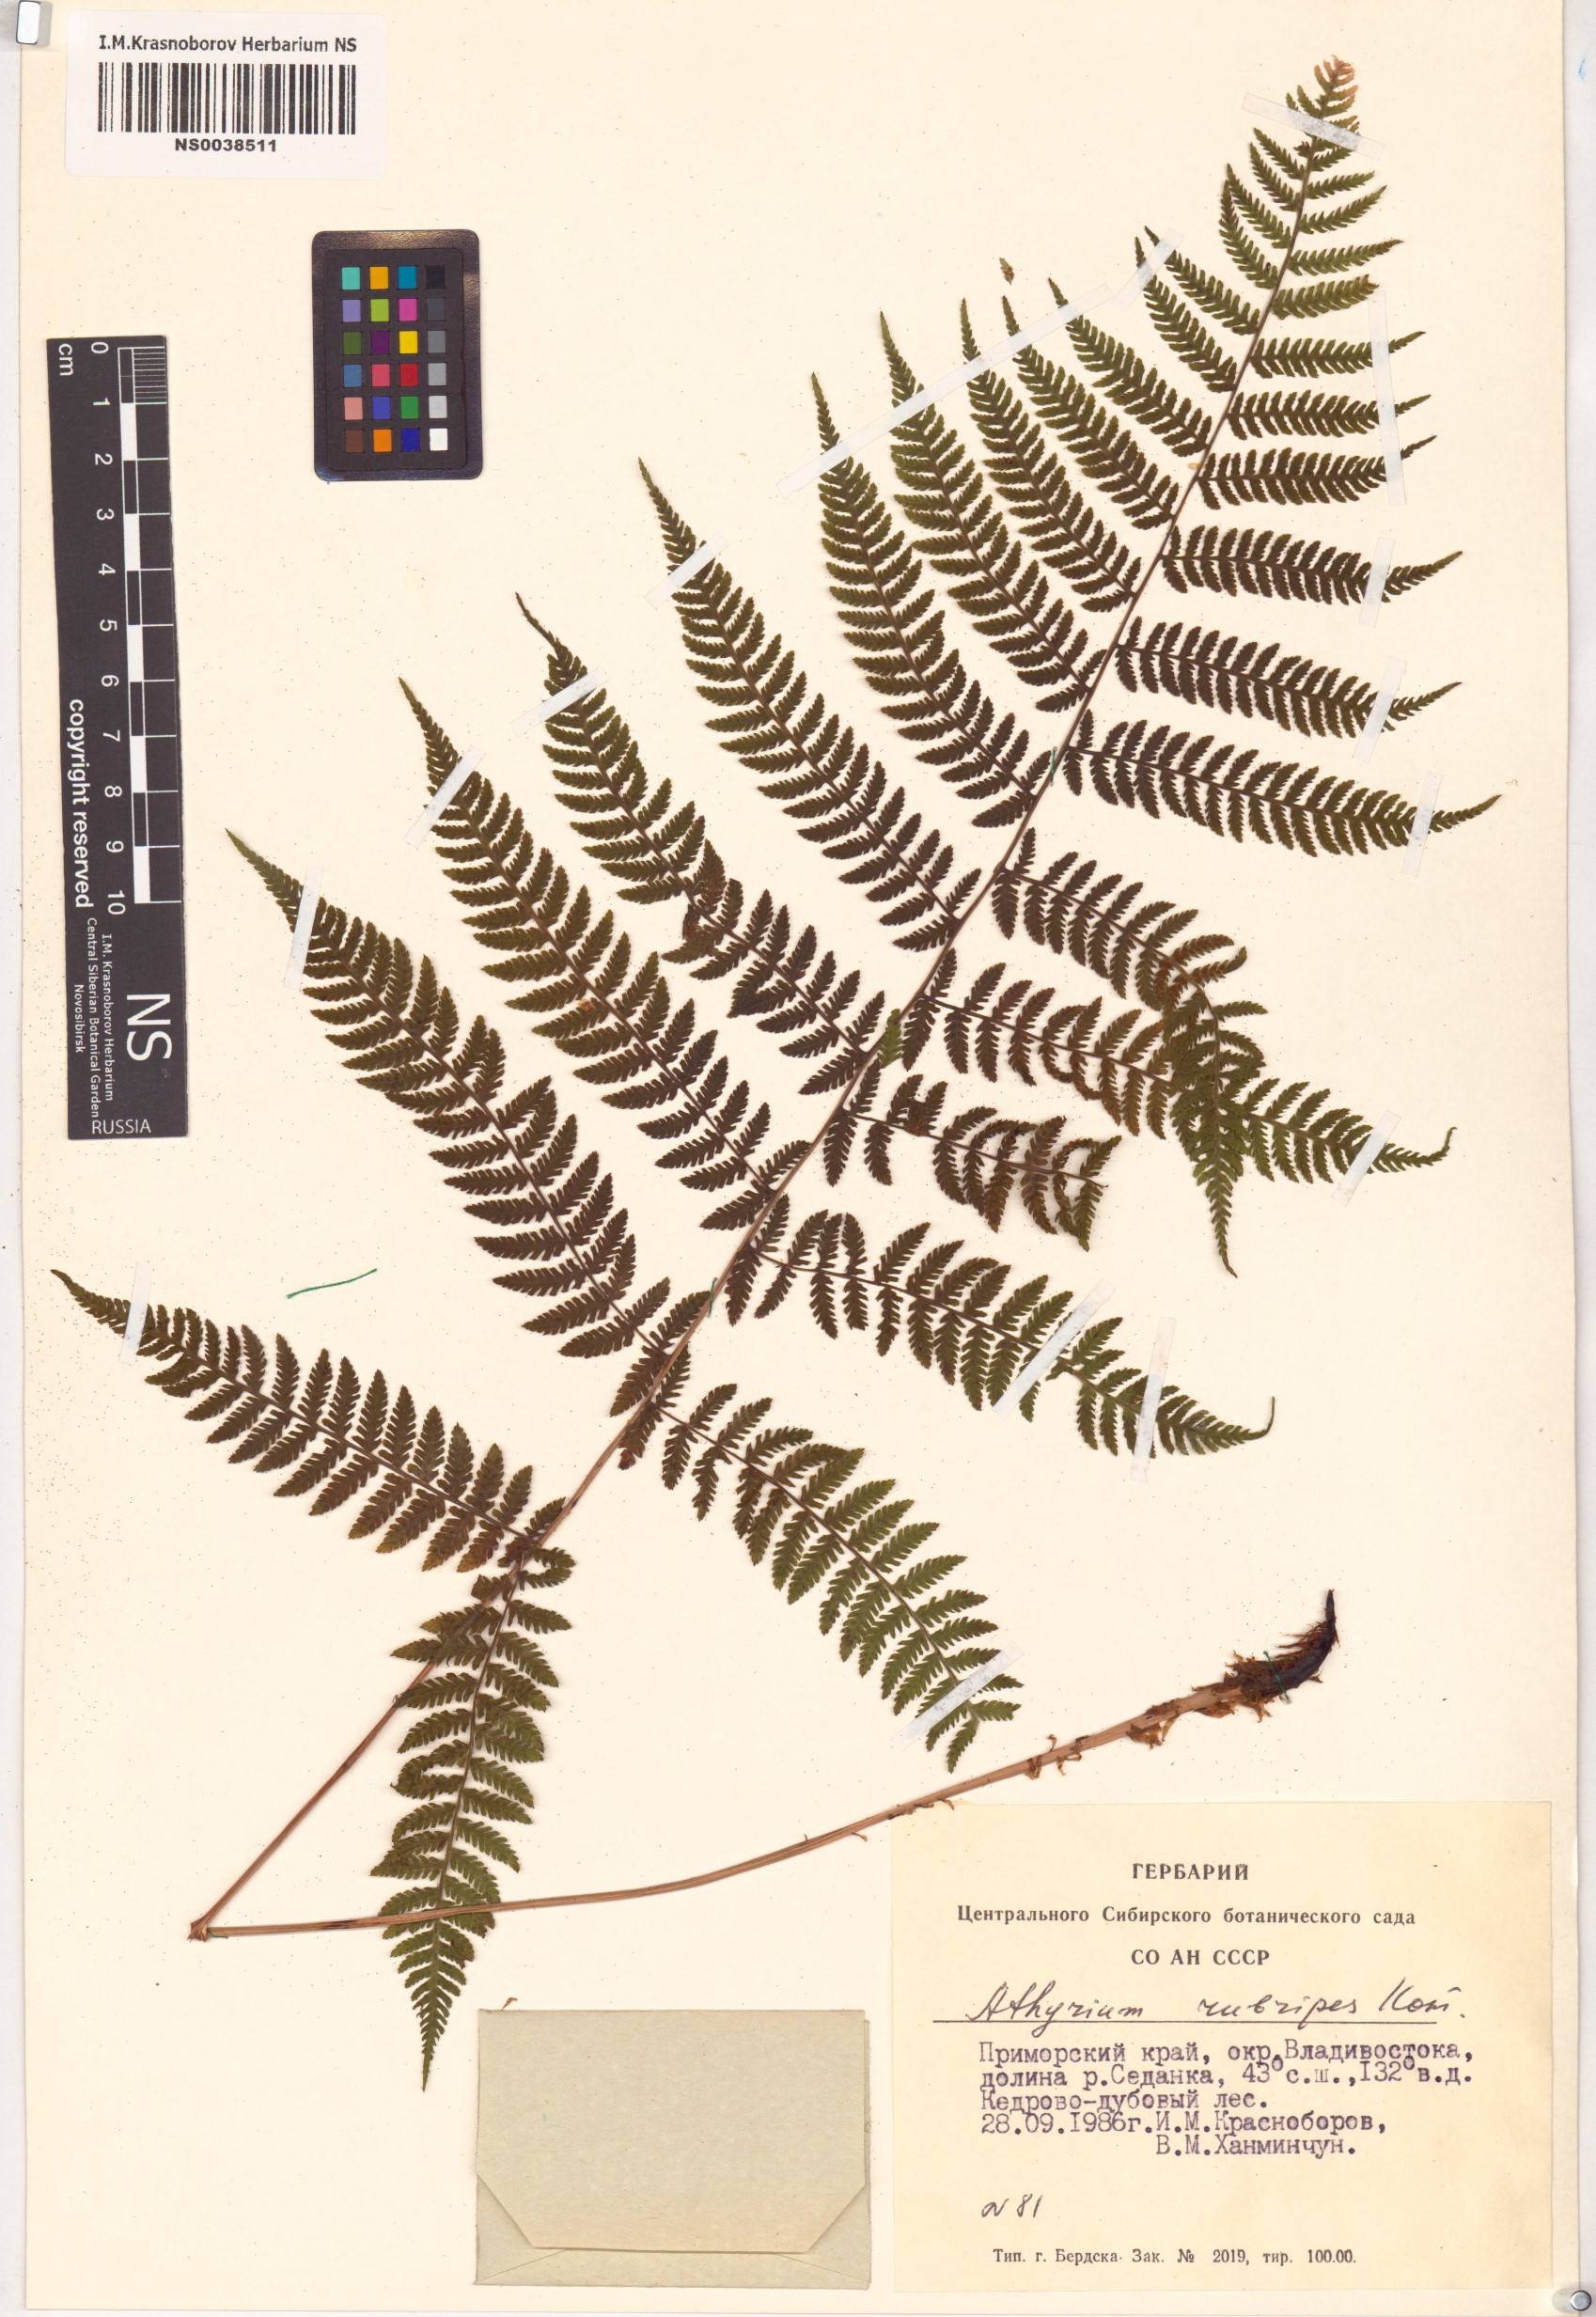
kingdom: Plantae
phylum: Tracheophyta
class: Polypodiopsida
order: Polypodiales
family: Athyriaceae
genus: Athyrium
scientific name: Athyrium rubripes
